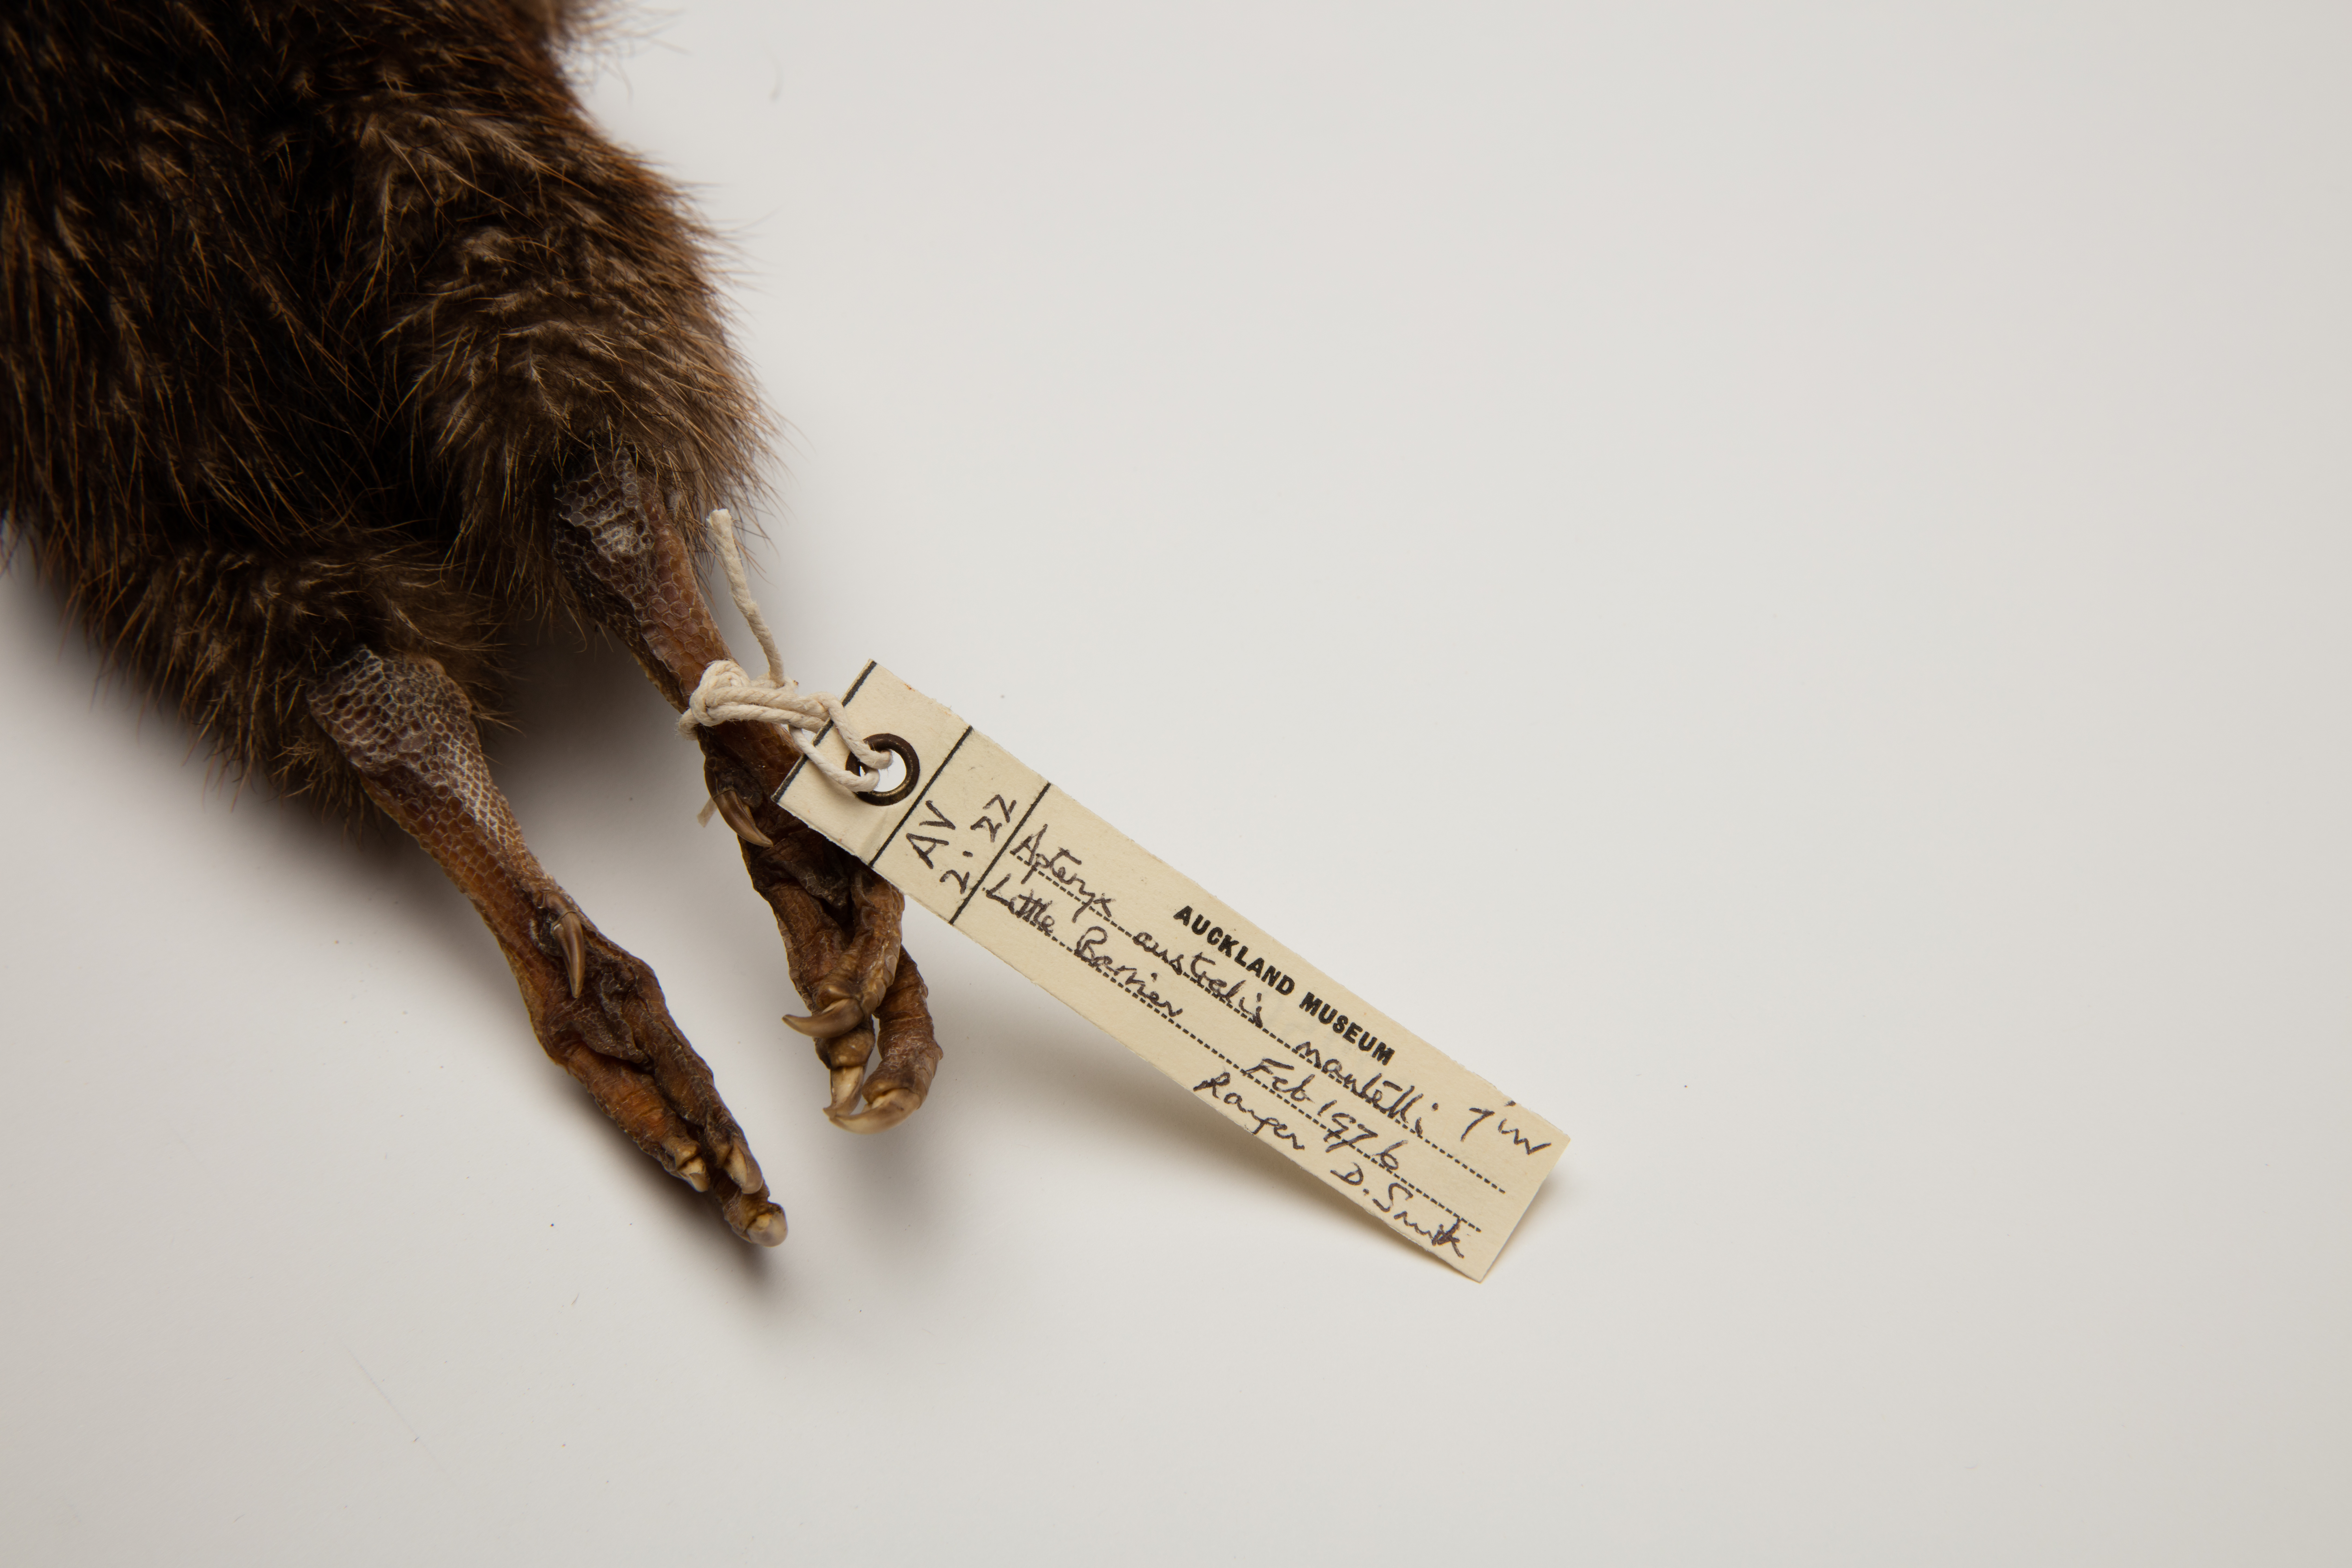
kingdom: Animalia
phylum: Chordata
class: Aves
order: Apterygiformes
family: Apterygidae
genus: Apteryx
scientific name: Apteryx mantelli
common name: North island brown kiwi
